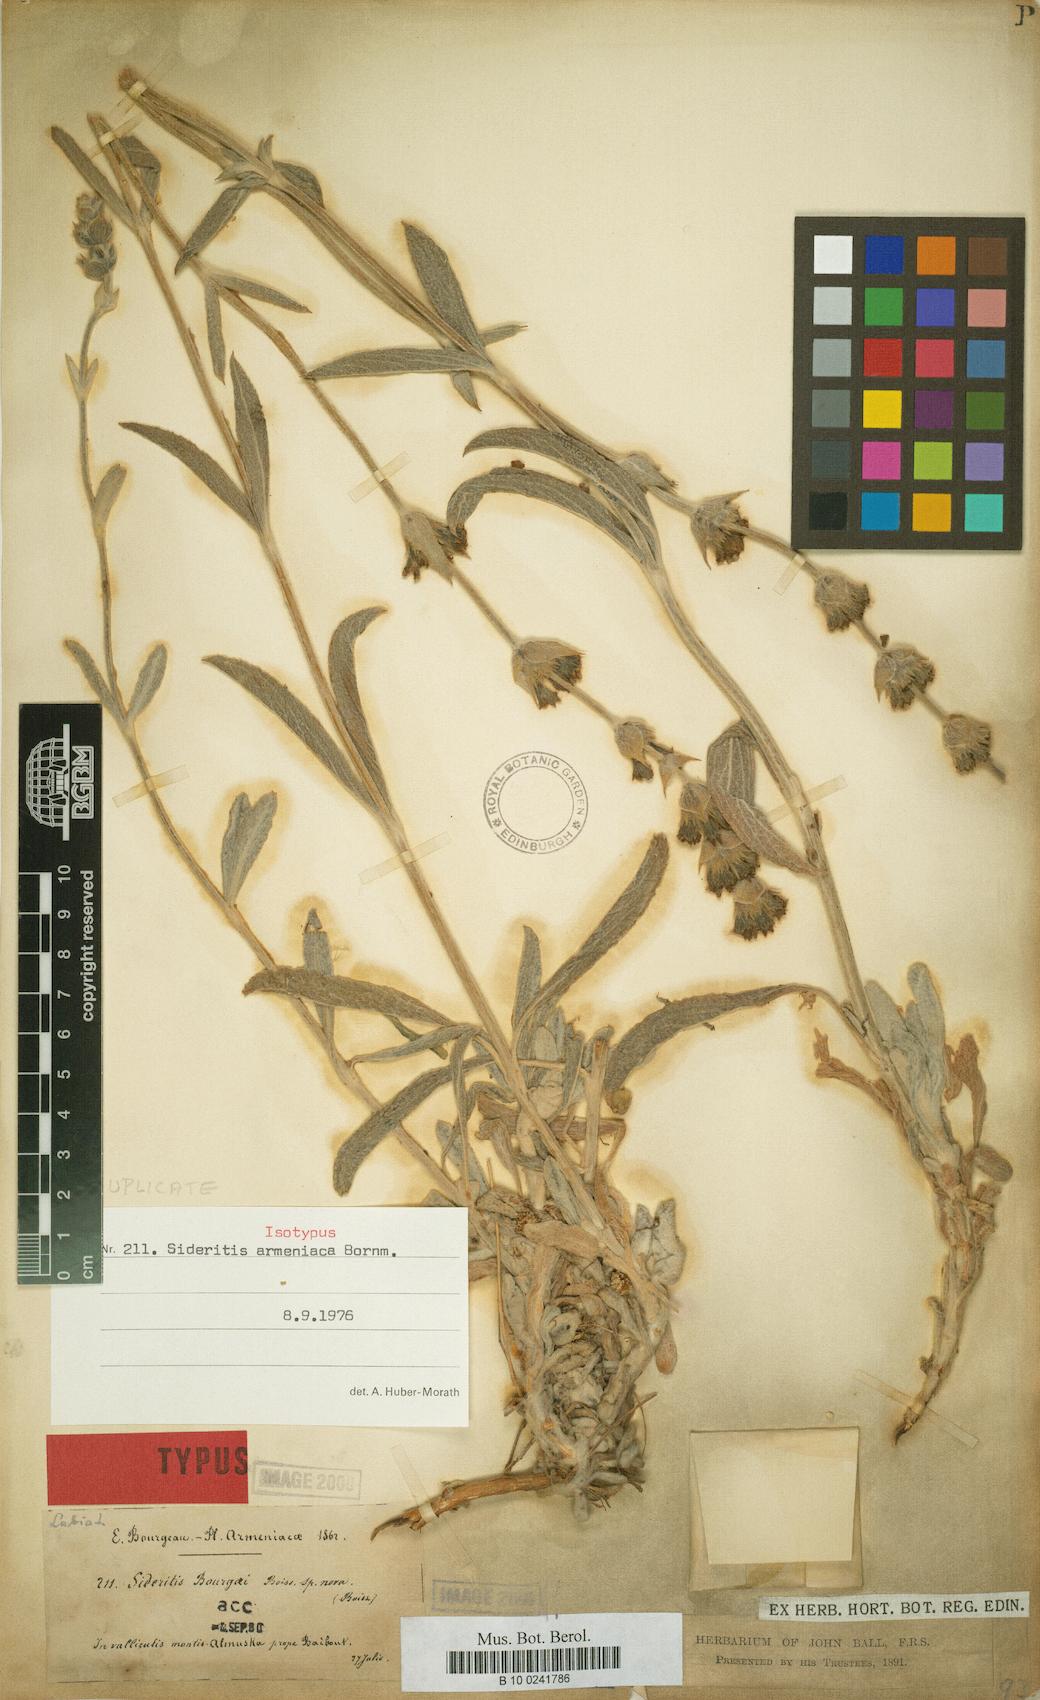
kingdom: Plantae
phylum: Tracheophyta
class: Magnoliopsida
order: Lamiales
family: Lamiaceae
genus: Sideritis
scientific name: Sideritis armeniaca
